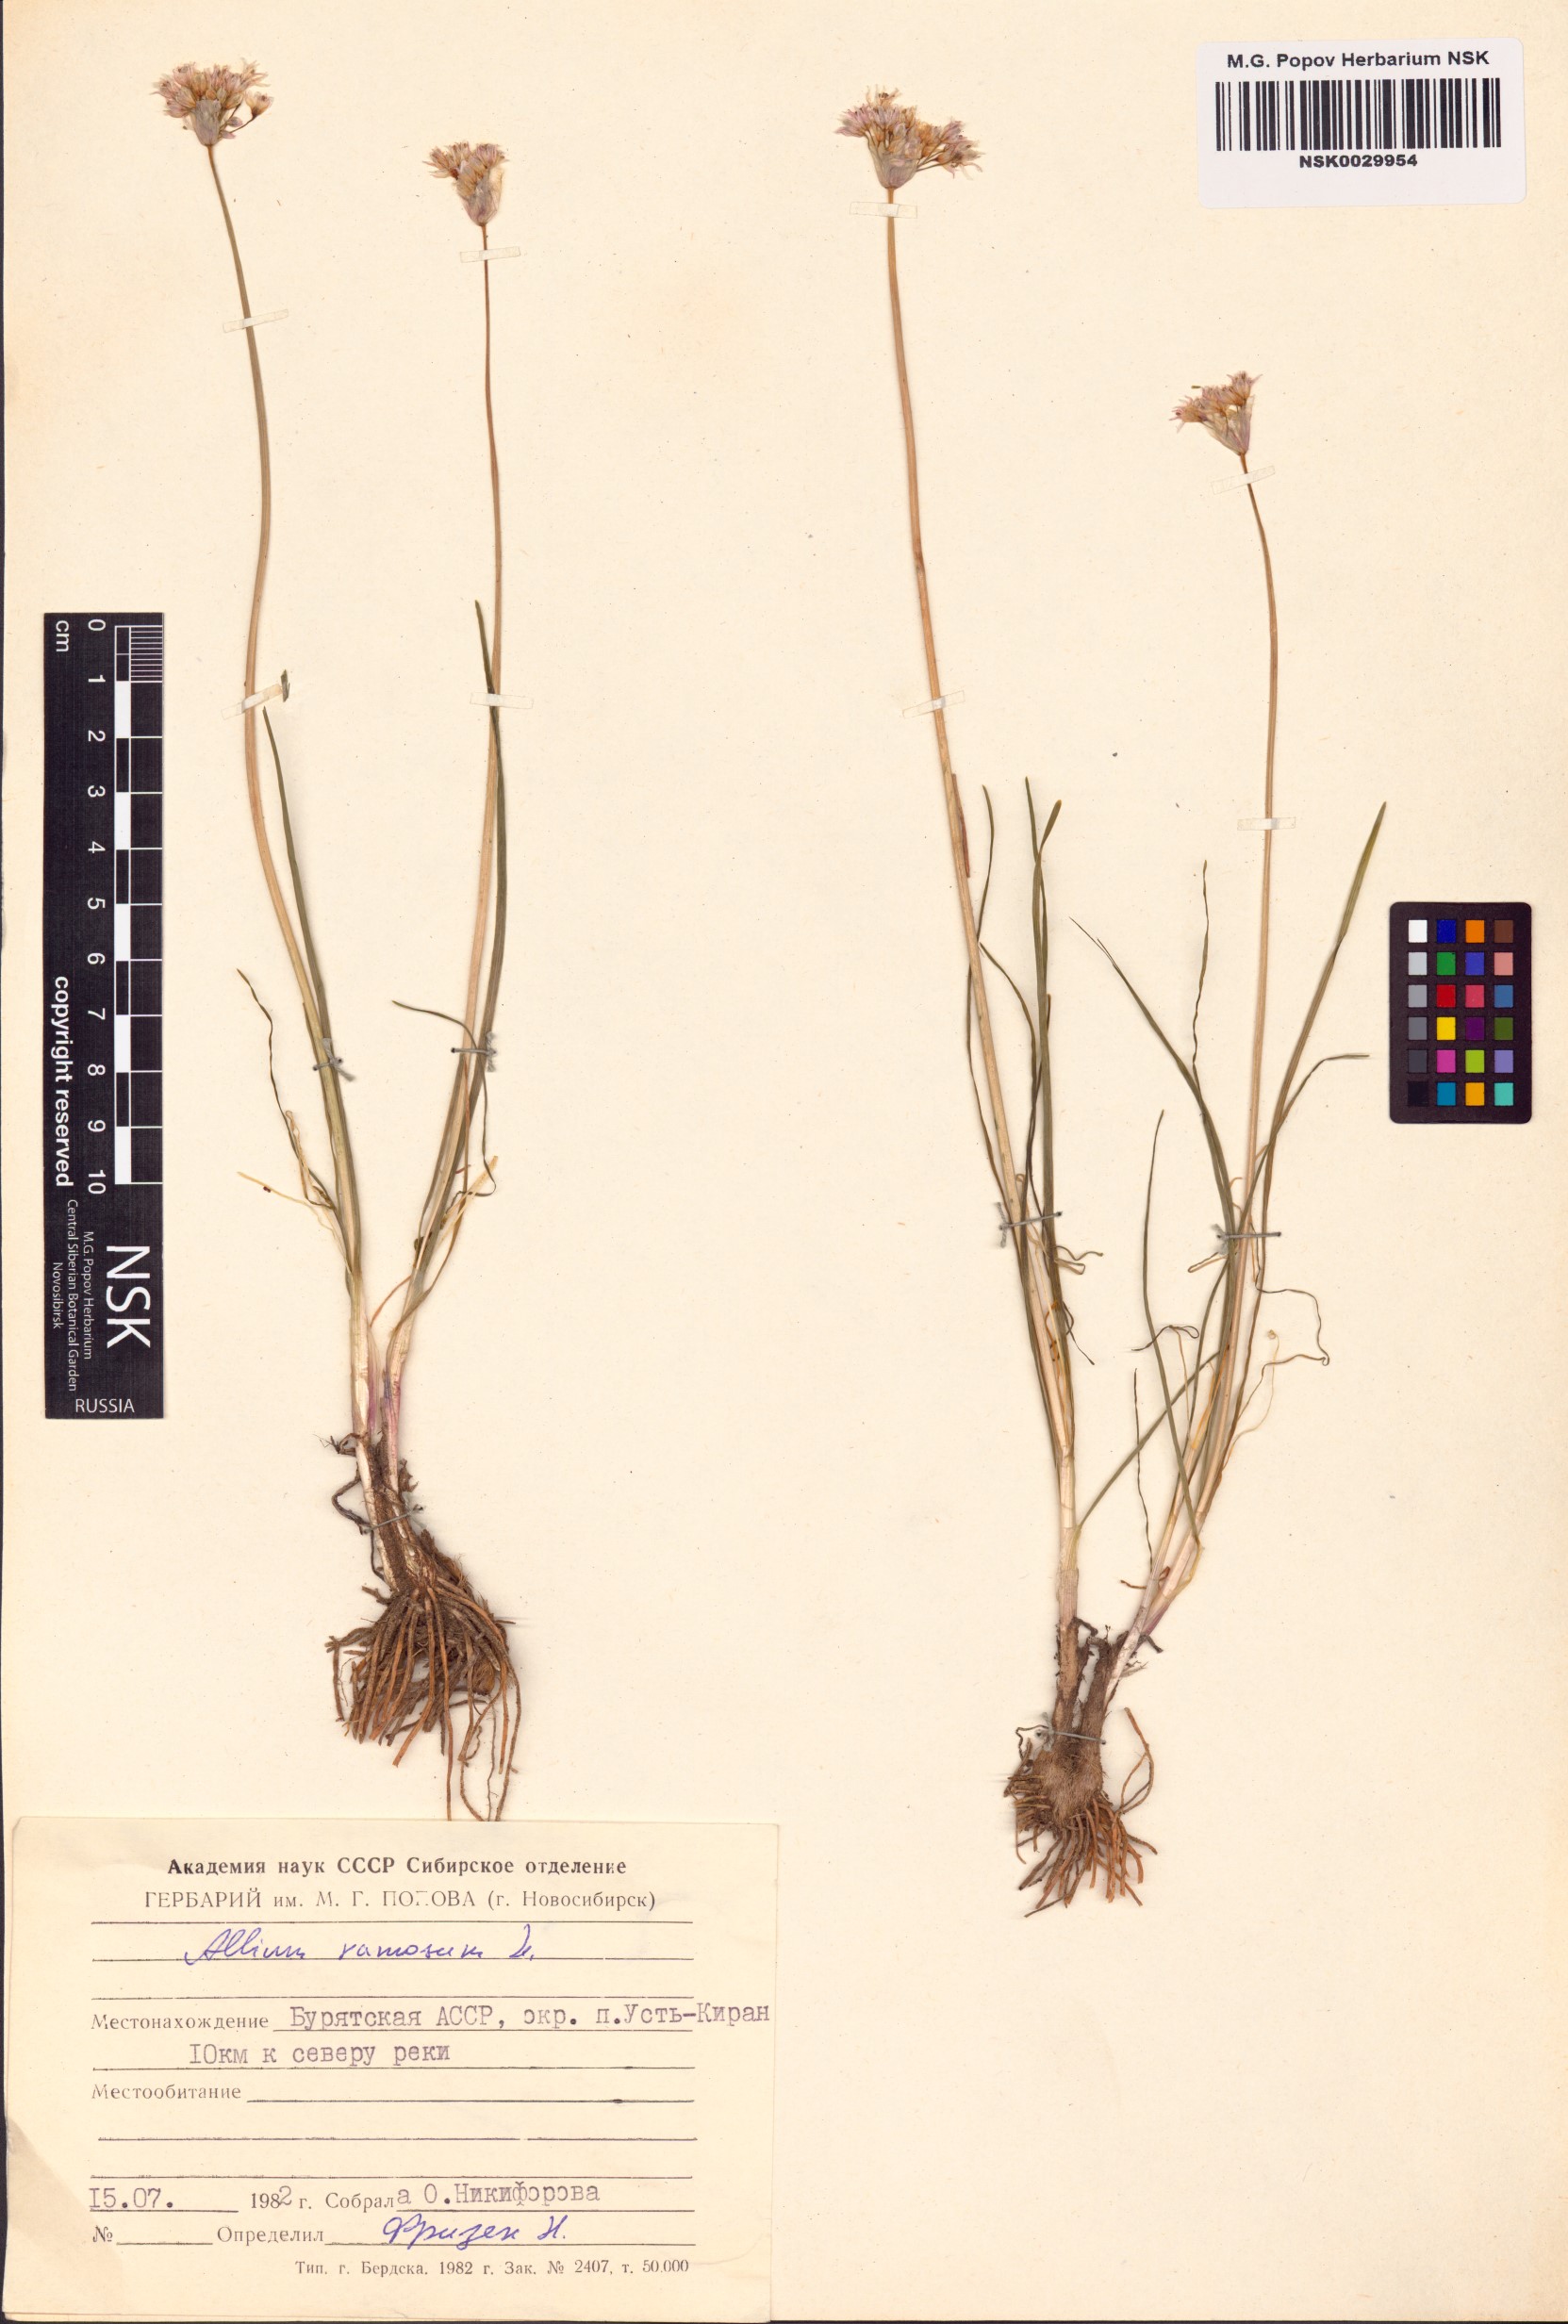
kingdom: Plantae
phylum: Tracheophyta
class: Liliopsida
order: Asparagales
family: Amaryllidaceae
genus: Allium
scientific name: Allium ramosum
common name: Fragrant garlic
